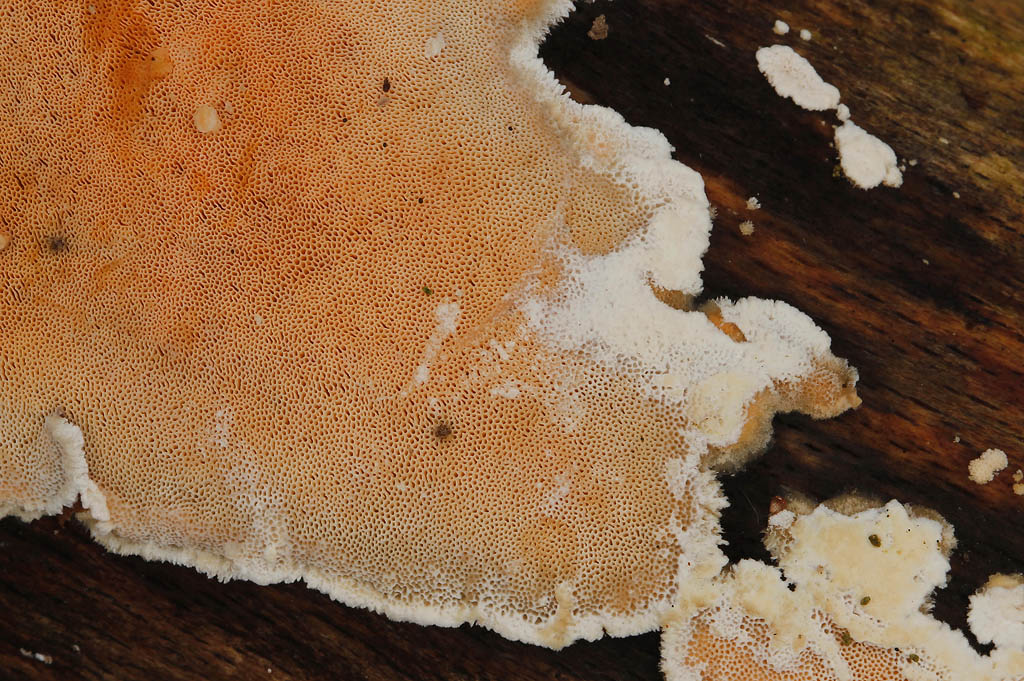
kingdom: Fungi
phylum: Basidiomycota
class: Agaricomycetes
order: Polyporales
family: Steccherinaceae
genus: Junghuhnia
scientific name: Junghuhnia nitida
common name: almindelig skønporesvamp
